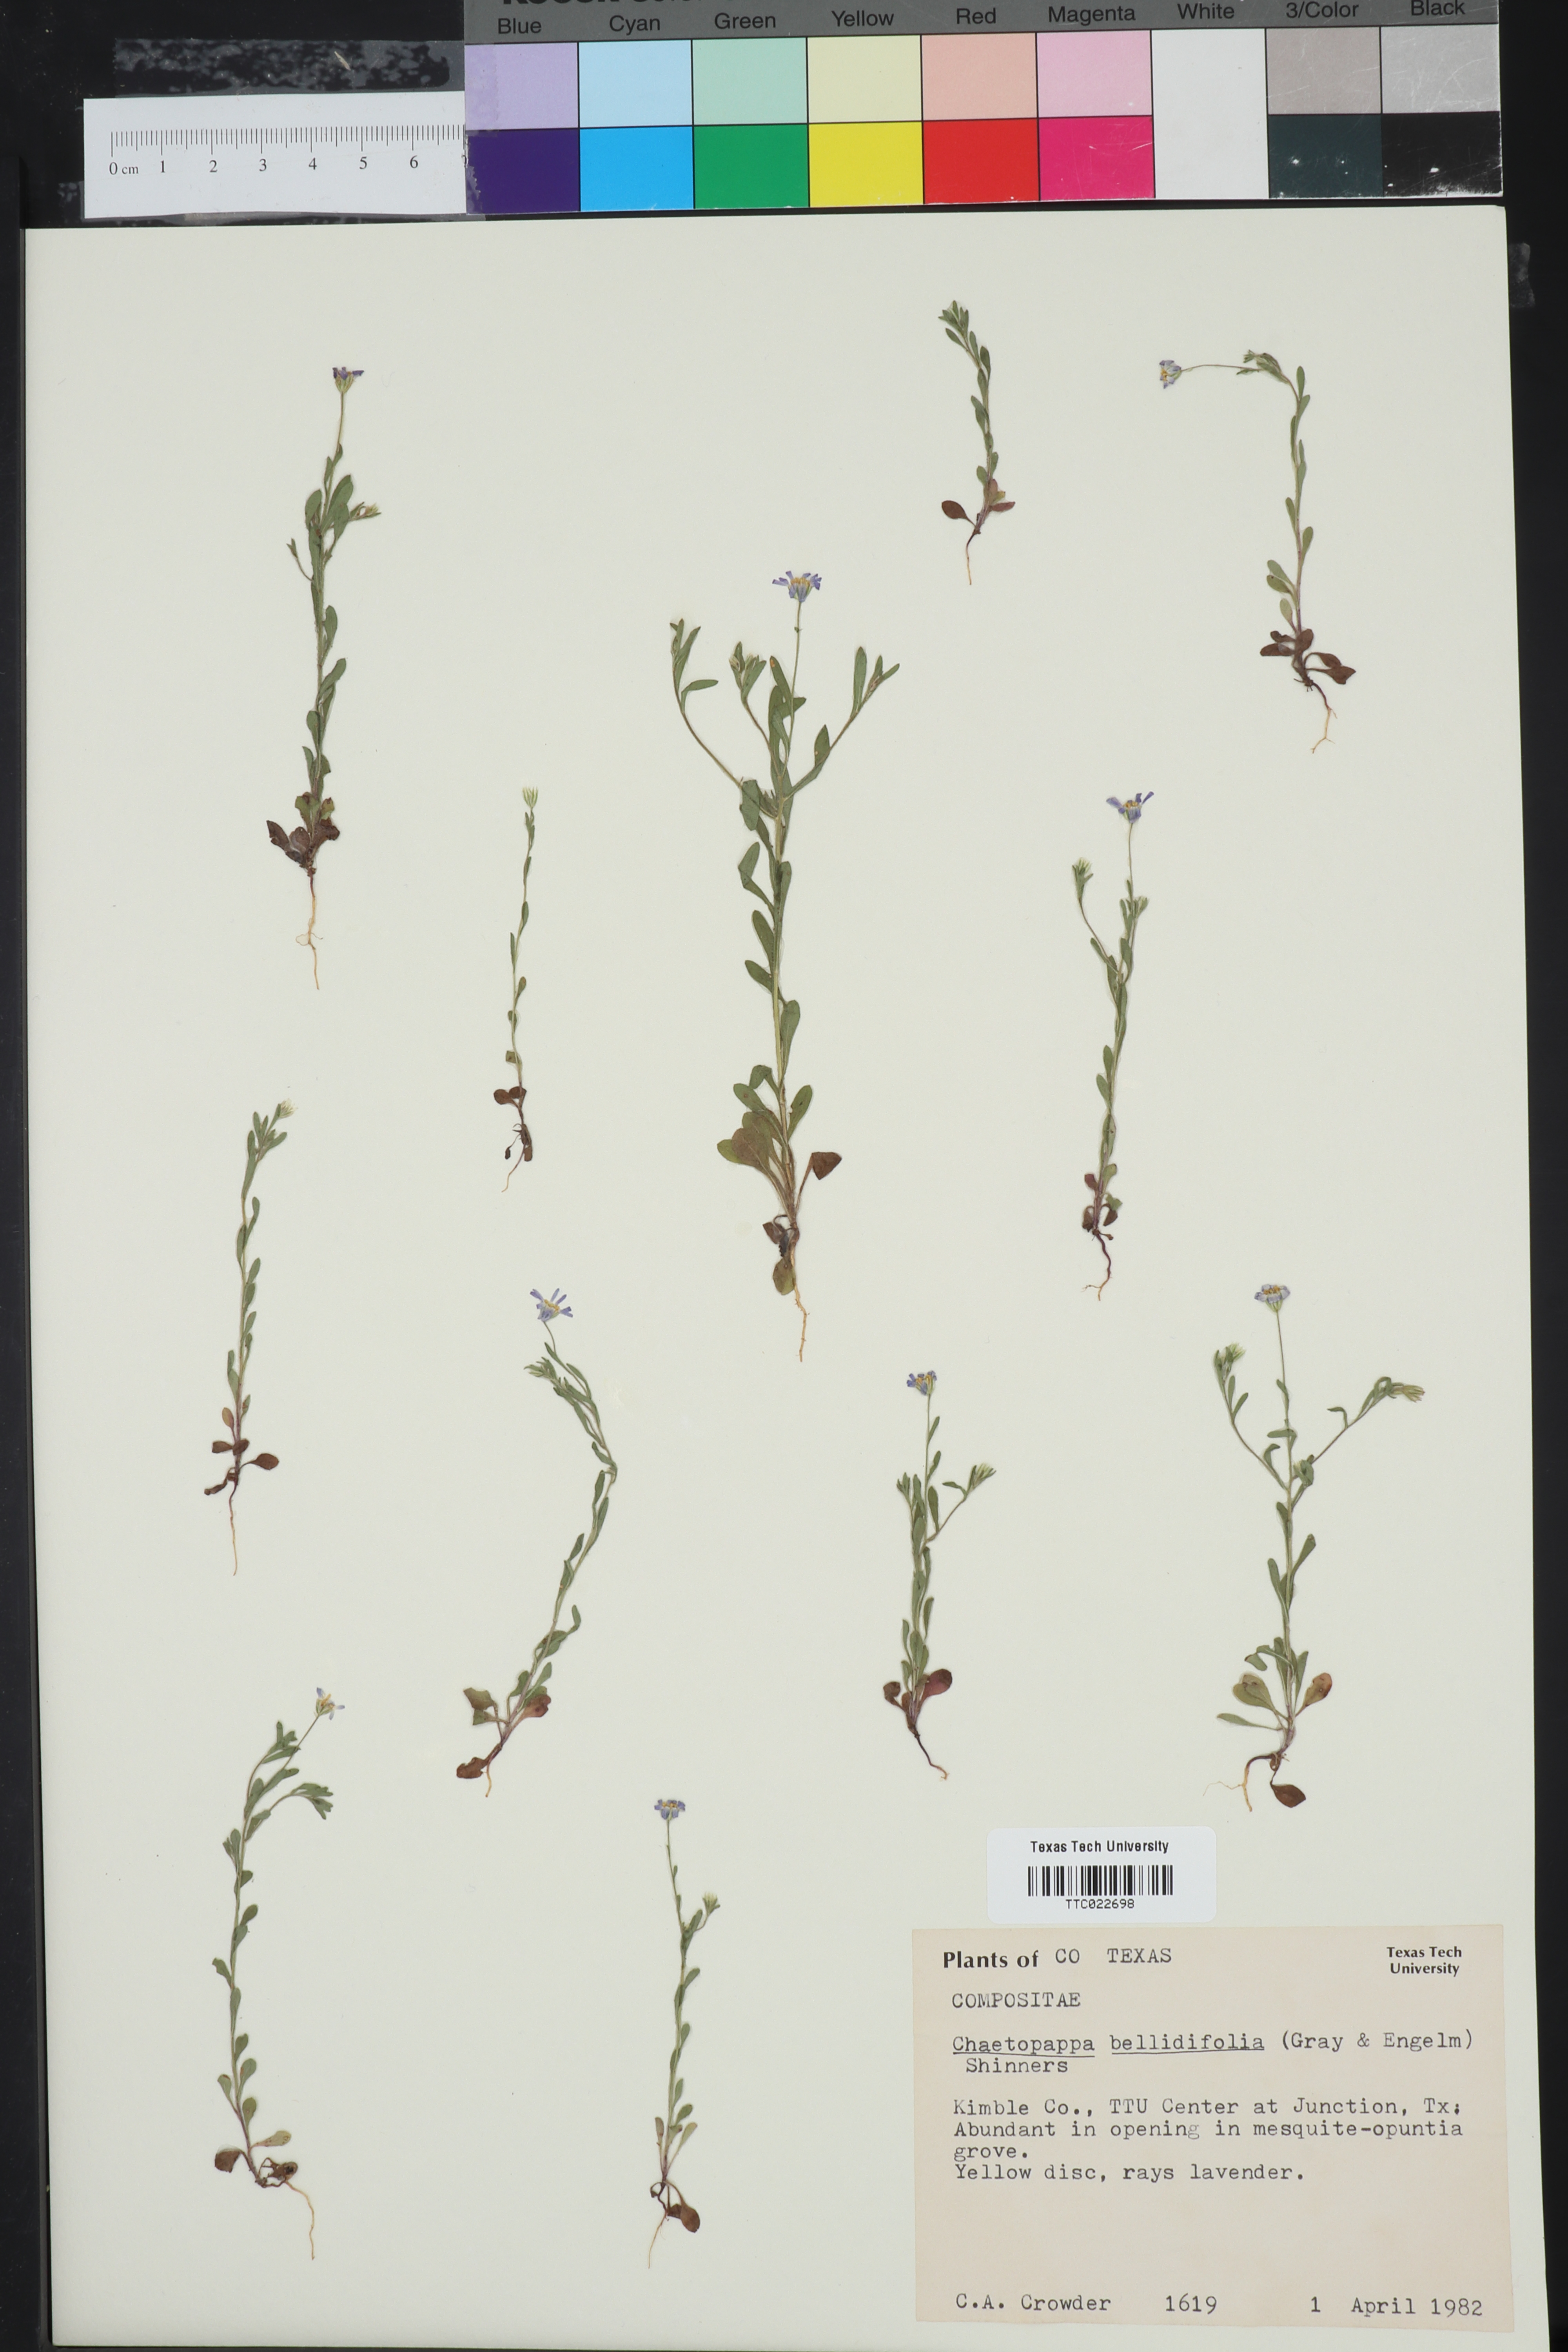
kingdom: Plantae
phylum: Tracheophyta
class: Magnoliopsida
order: Asterales
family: Asteraceae
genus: Chaetopappa
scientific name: Chaetopappa bellidifolia
